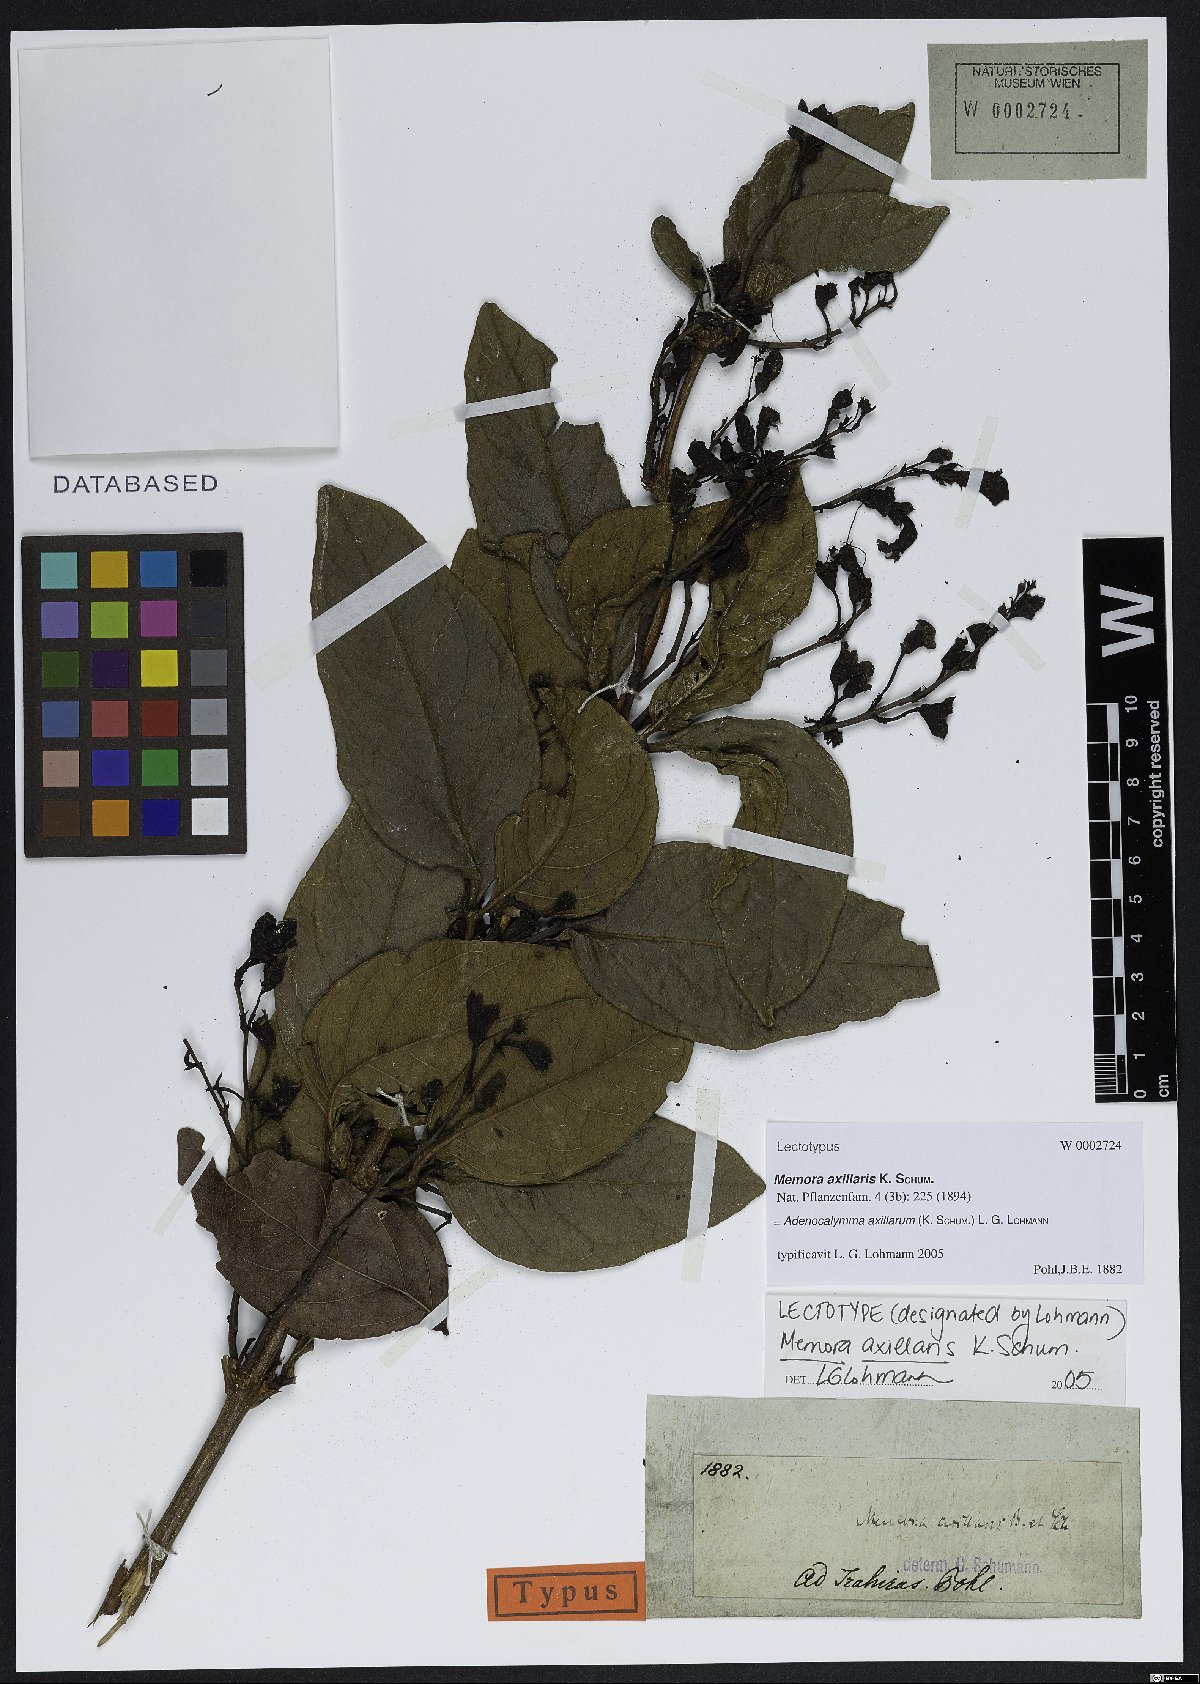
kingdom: Plantae
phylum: Tracheophyta
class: Magnoliopsida
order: Lamiales
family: Bignoniaceae
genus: Adenocalymma
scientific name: Adenocalymma axillare
